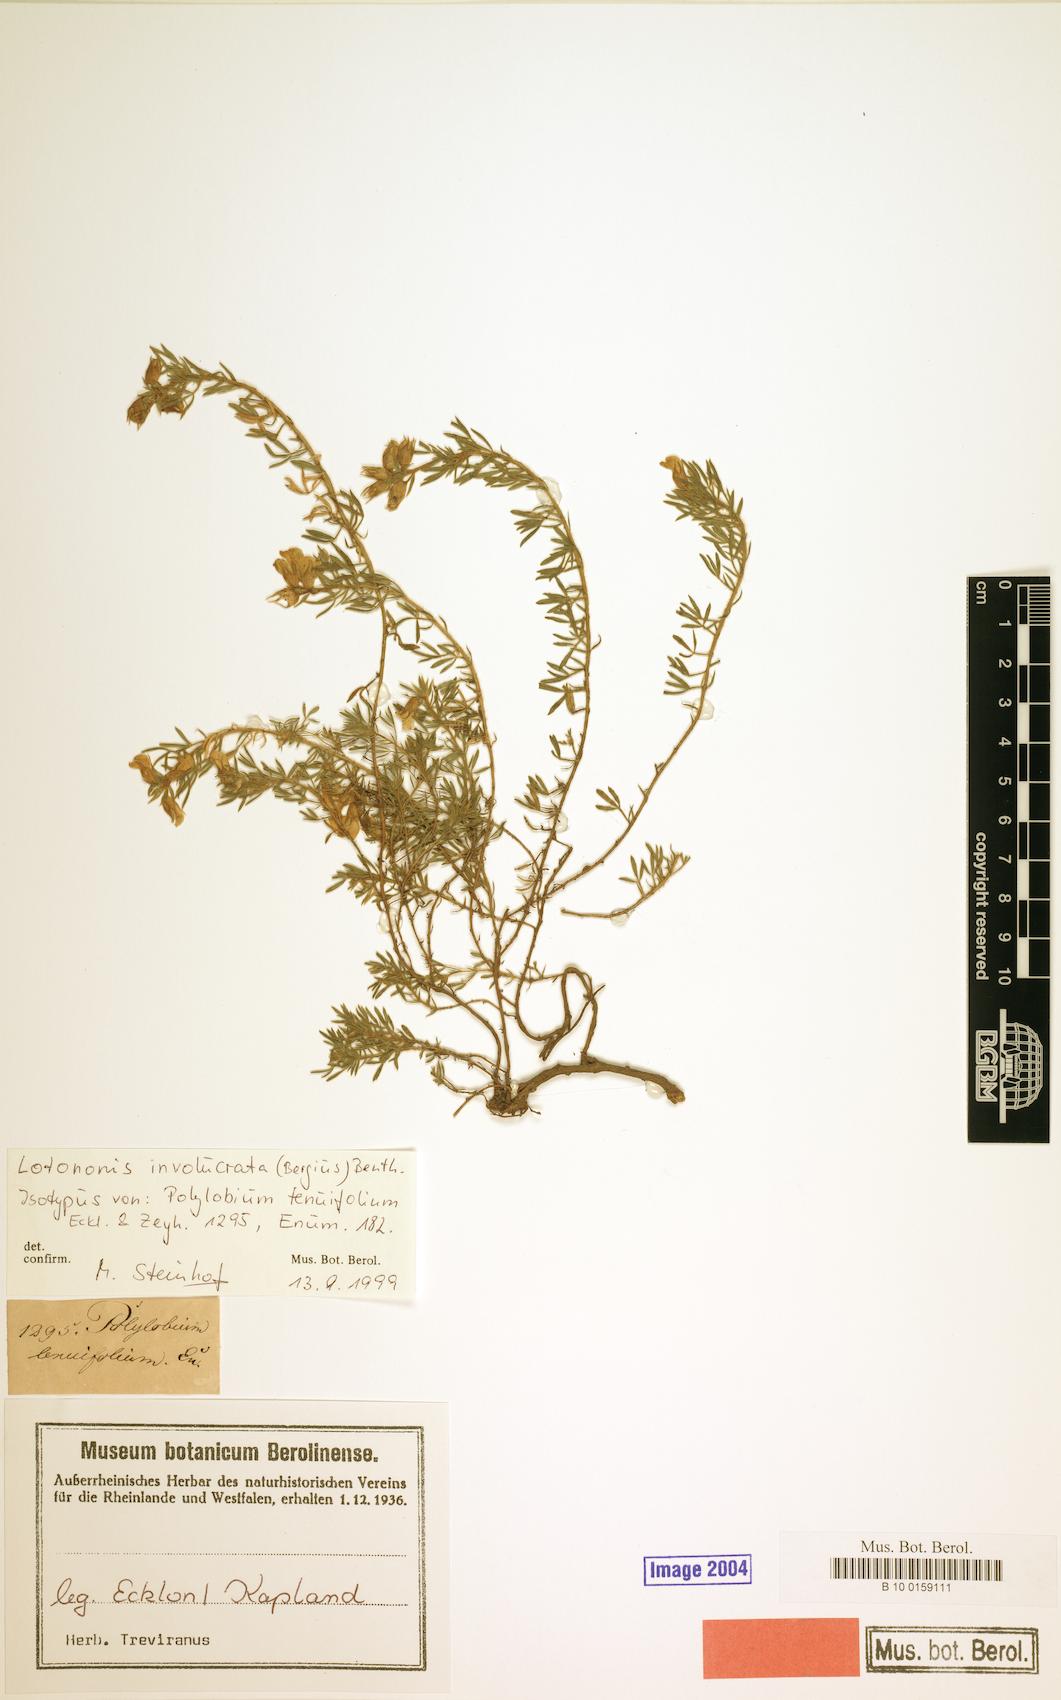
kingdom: Plantae
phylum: Tracheophyta
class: Magnoliopsida
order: Fabales
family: Fabaceae
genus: Lotononis
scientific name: Lotononis involucrata
